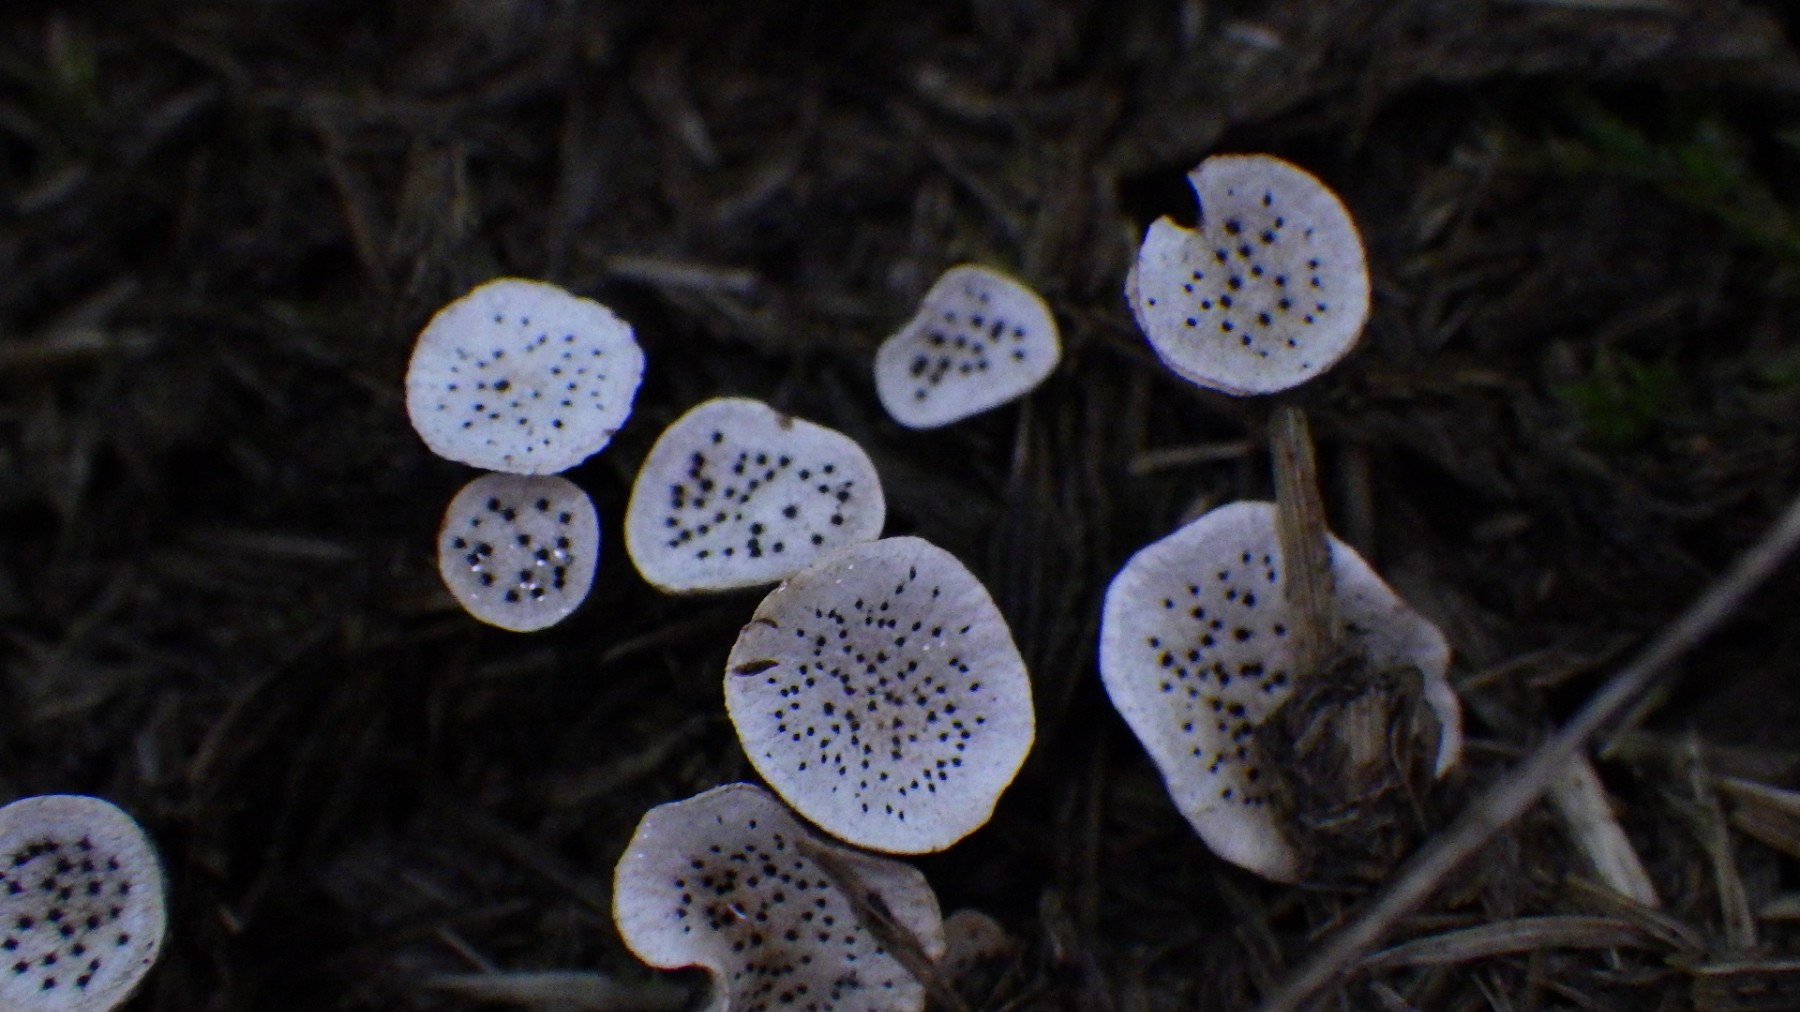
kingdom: Fungi
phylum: Ascomycota
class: Sordariomycetes
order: Xylariales
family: Xylariaceae
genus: Poronia
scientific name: Poronia punctata
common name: stor priksvamp
